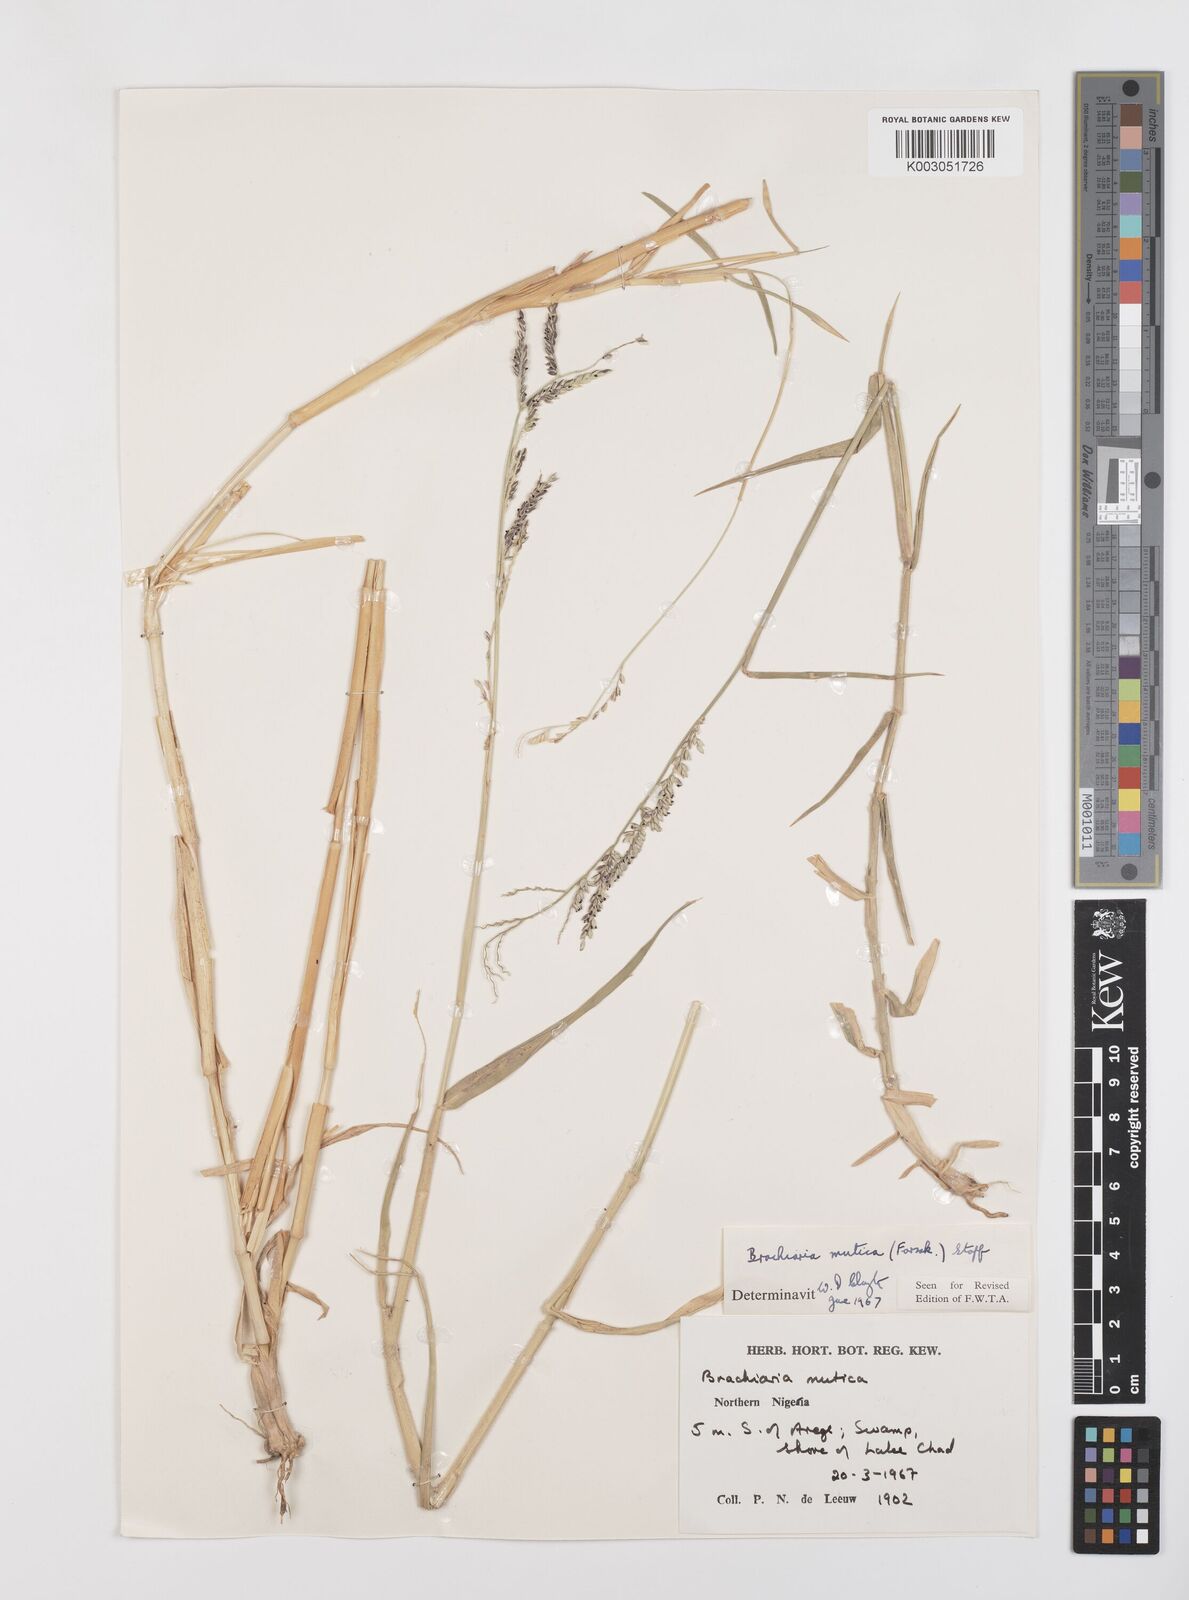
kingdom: Plantae
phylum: Tracheophyta
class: Liliopsida
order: Poales
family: Poaceae
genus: Urochloa
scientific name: Urochloa mutica
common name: Para grass
